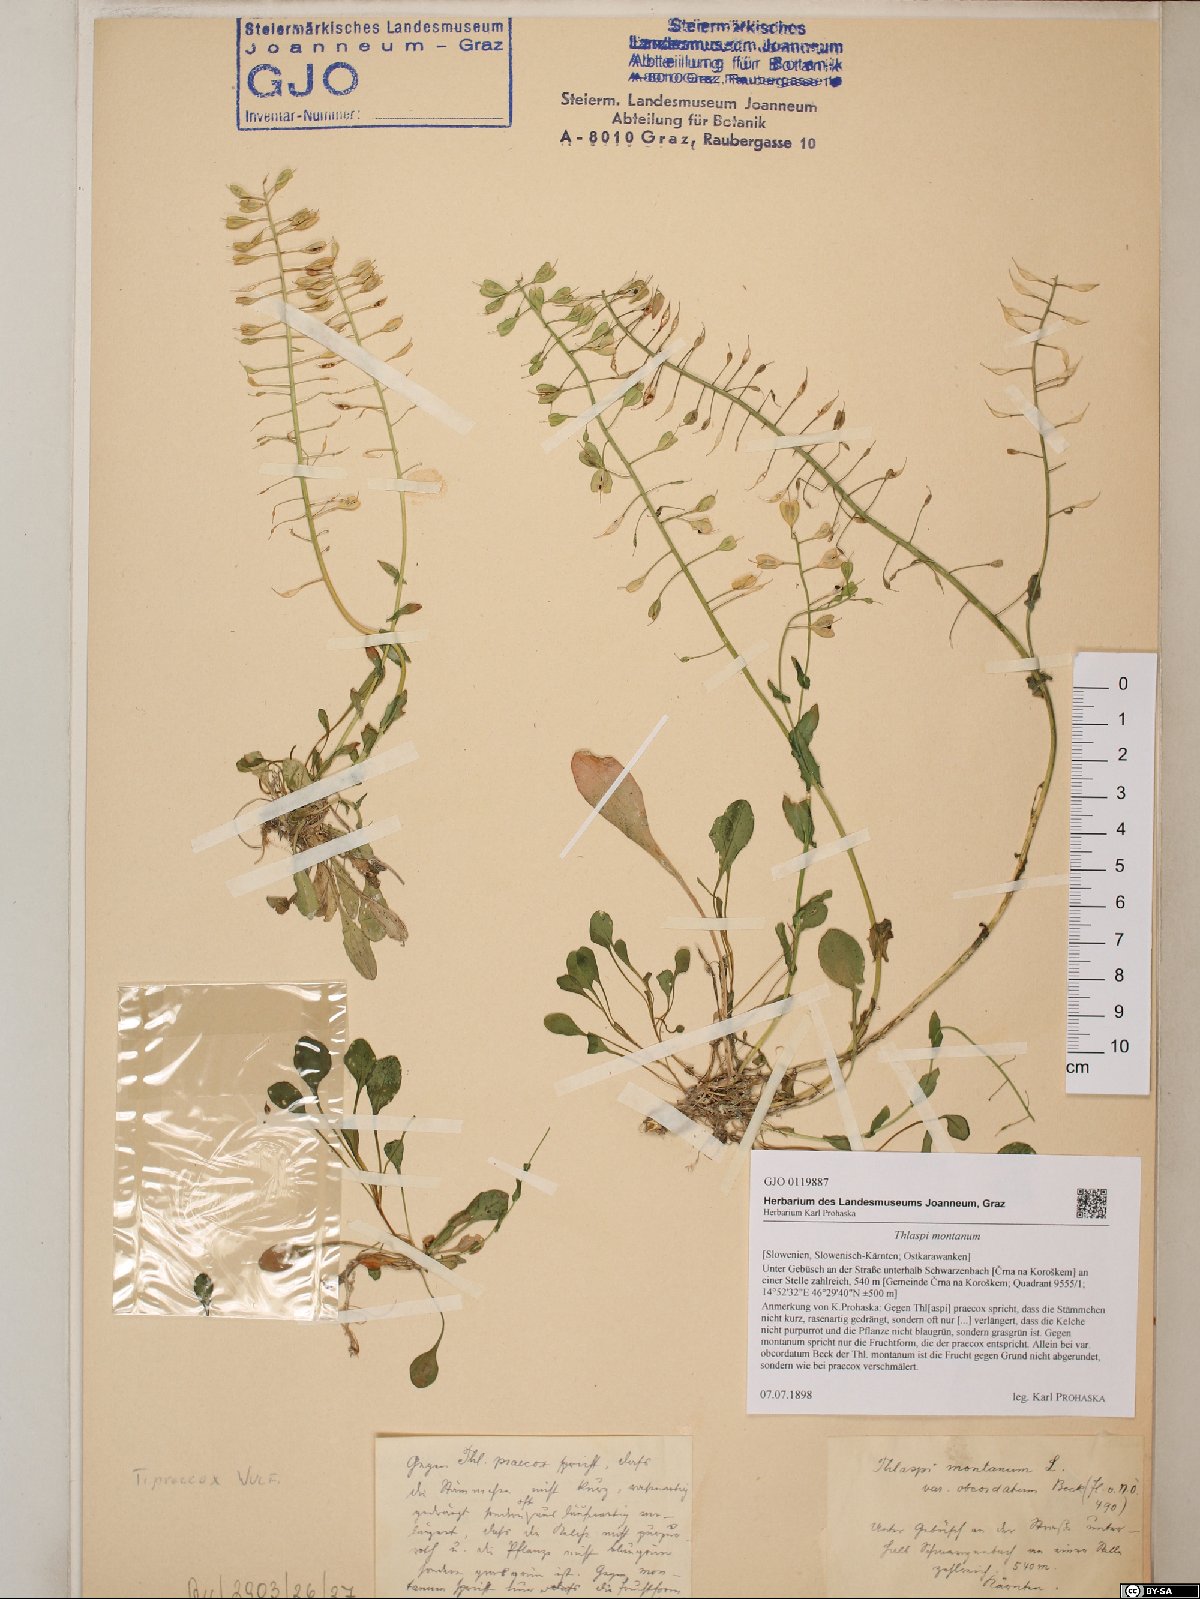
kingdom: Plantae
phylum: Tracheophyta
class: Magnoliopsida
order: Brassicales
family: Brassicaceae
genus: Noccaea
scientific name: Noccaea montana
